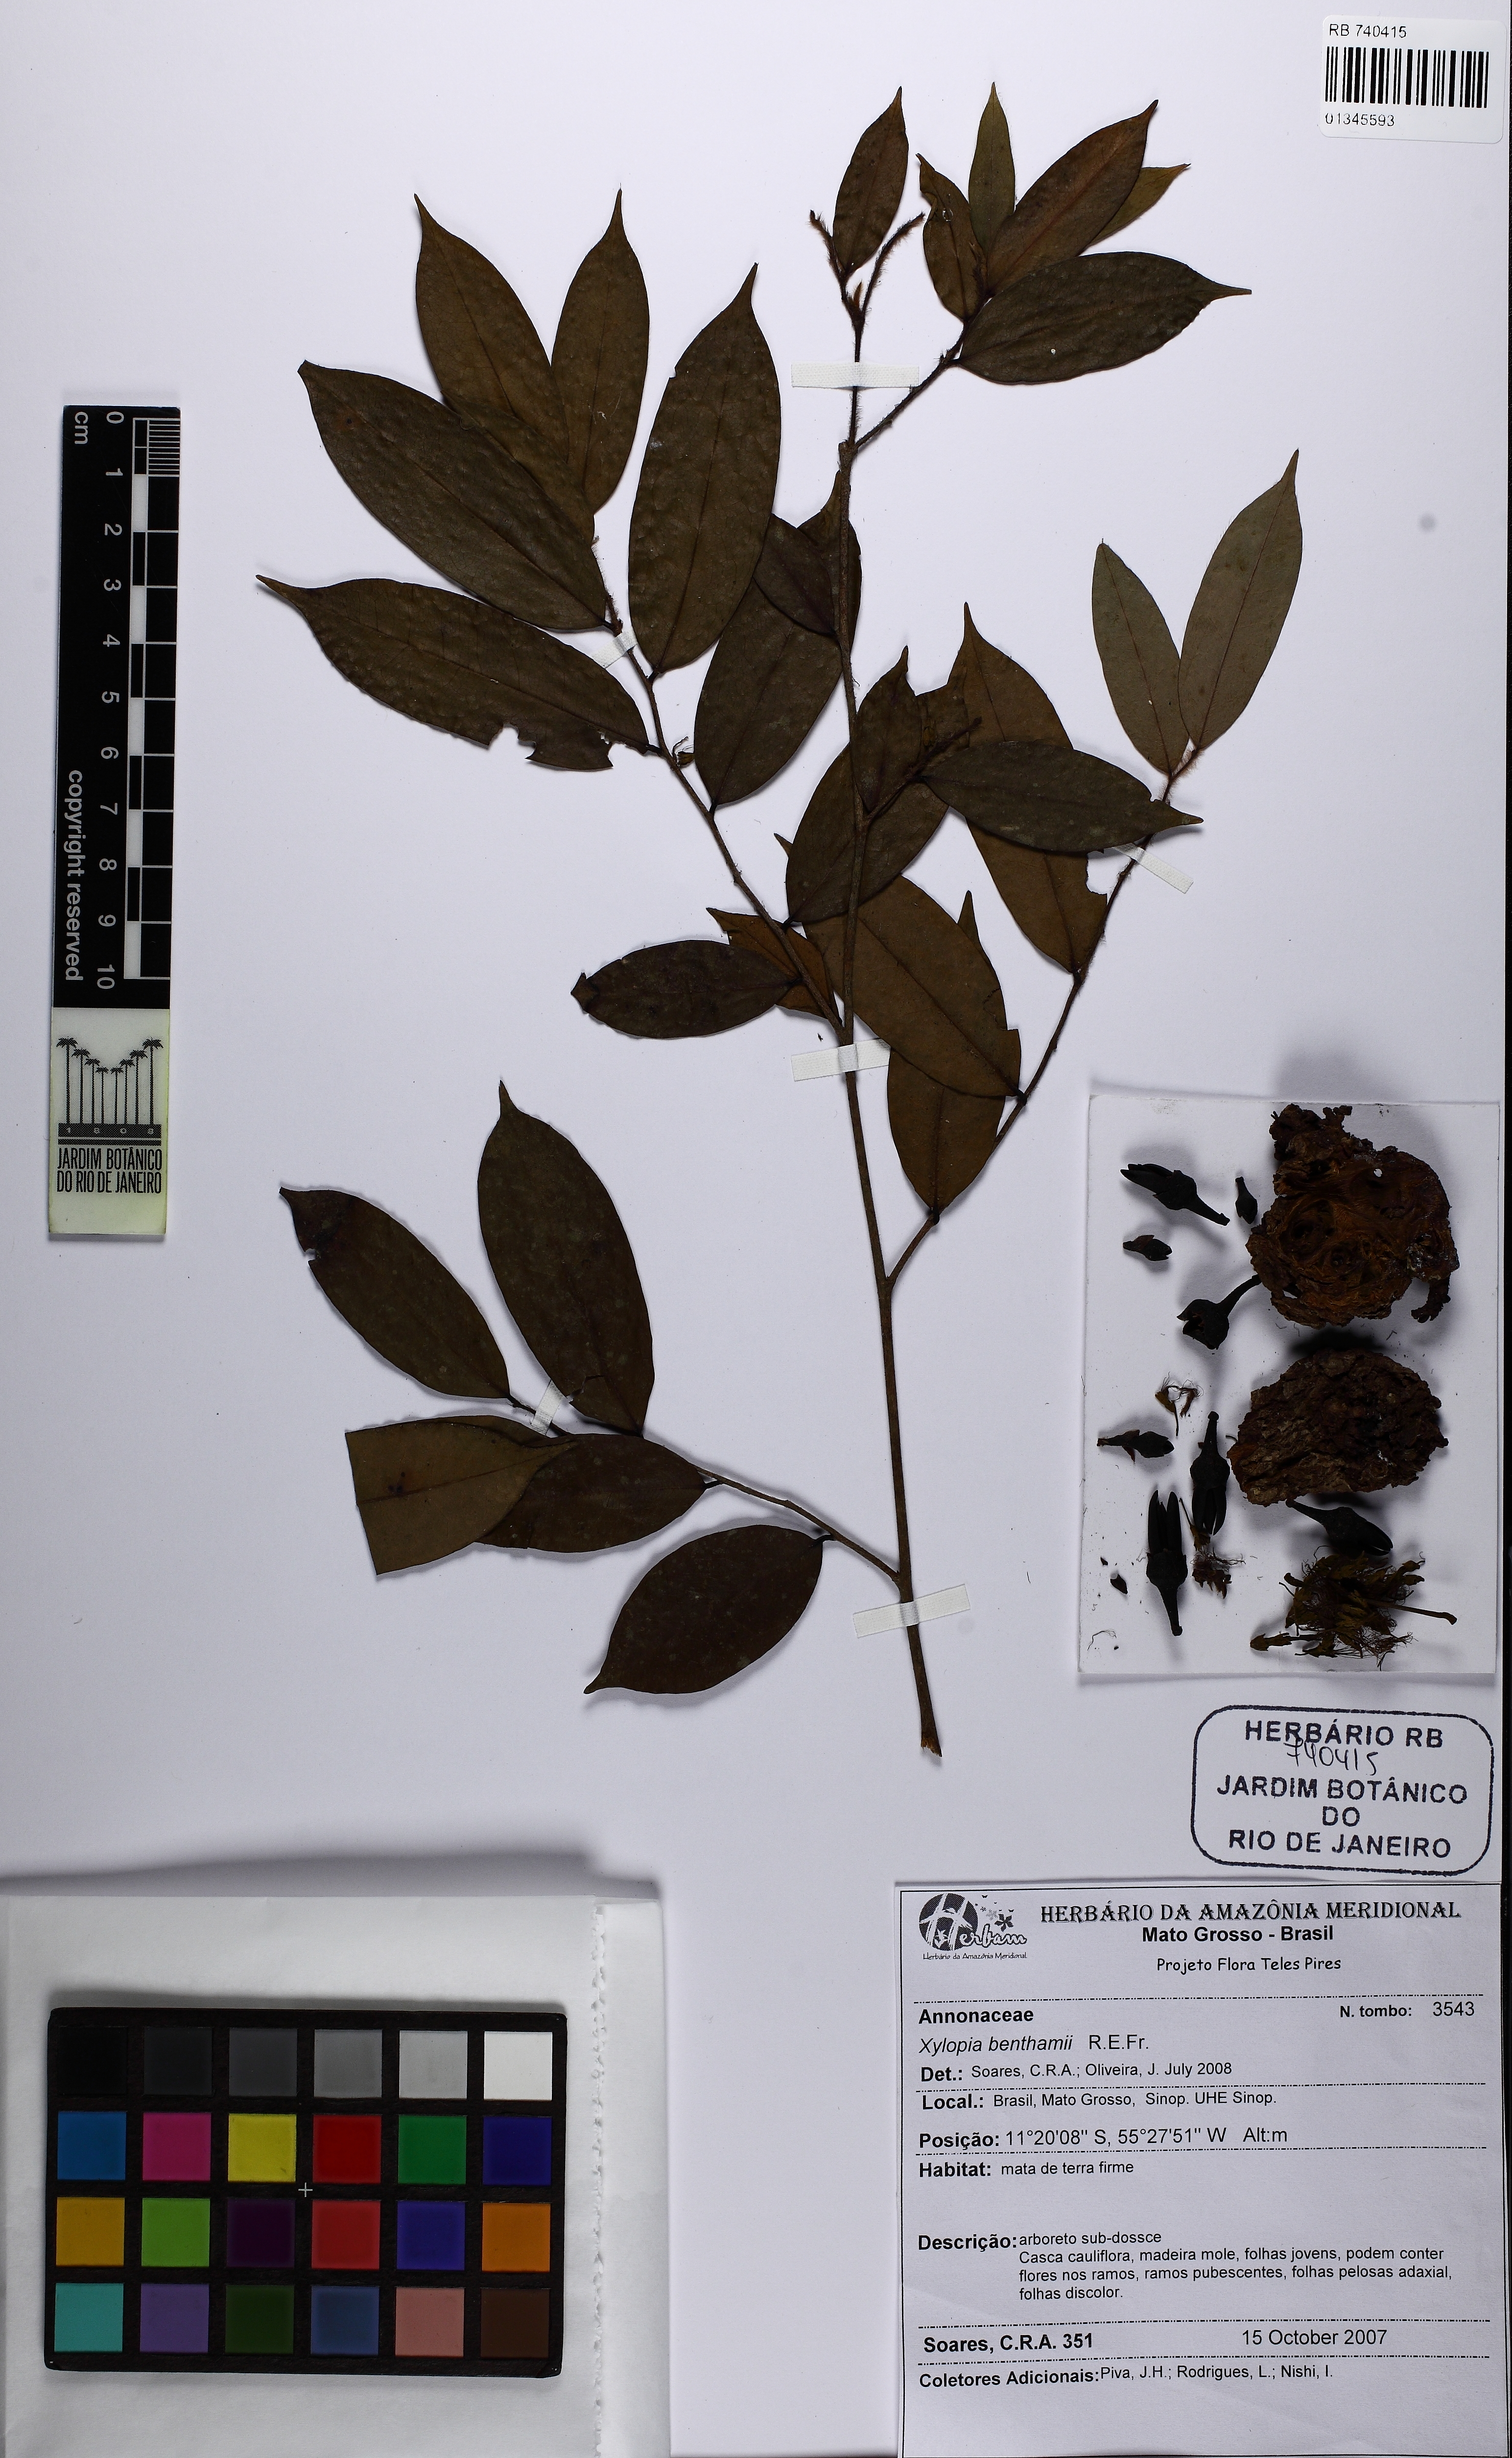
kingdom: Plantae
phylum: Tracheophyta
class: Magnoliopsida
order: Magnoliales
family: Annonaceae
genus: Xylopia
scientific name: Xylopia benthamii
